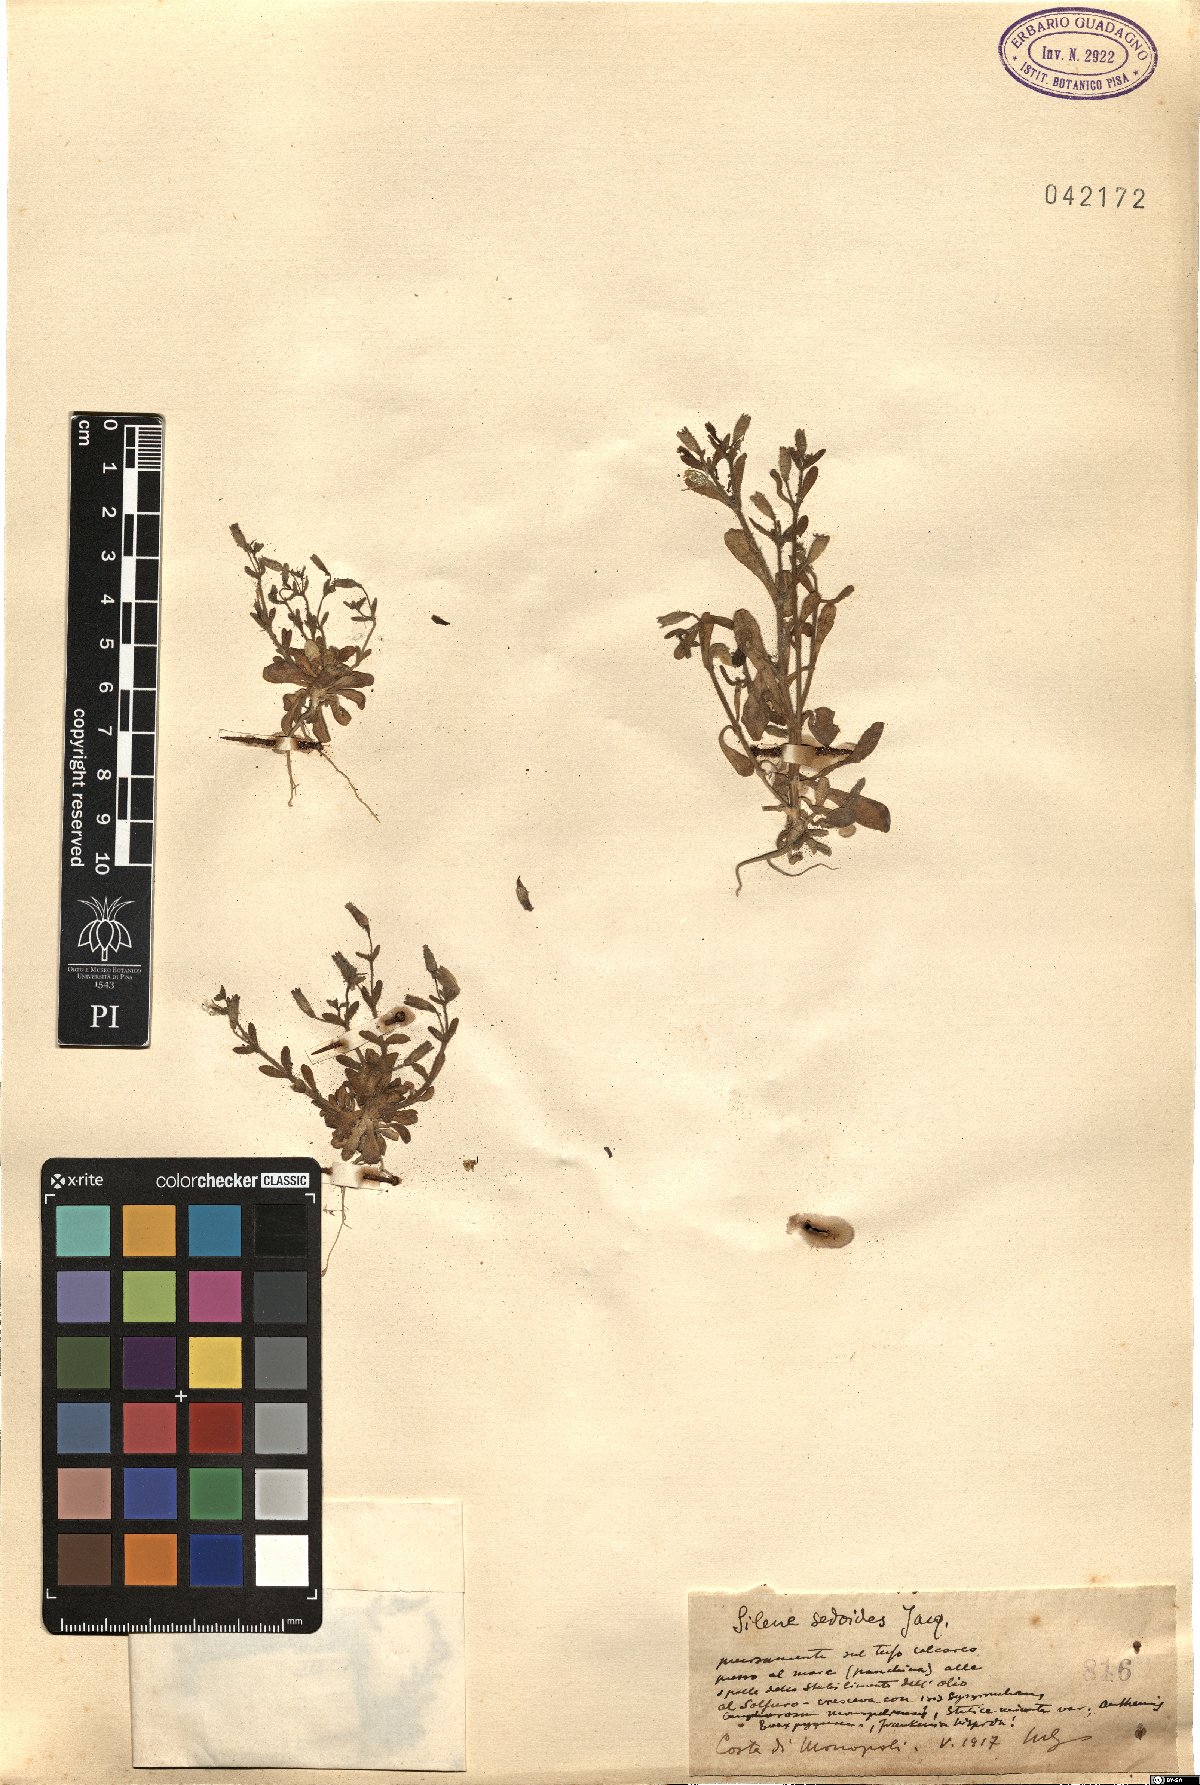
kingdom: Plantae
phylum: Tracheophyta
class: Magnoliopsida
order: Caryophyllales
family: Caryophyllaceae
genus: Silene
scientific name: Silene sedoides
